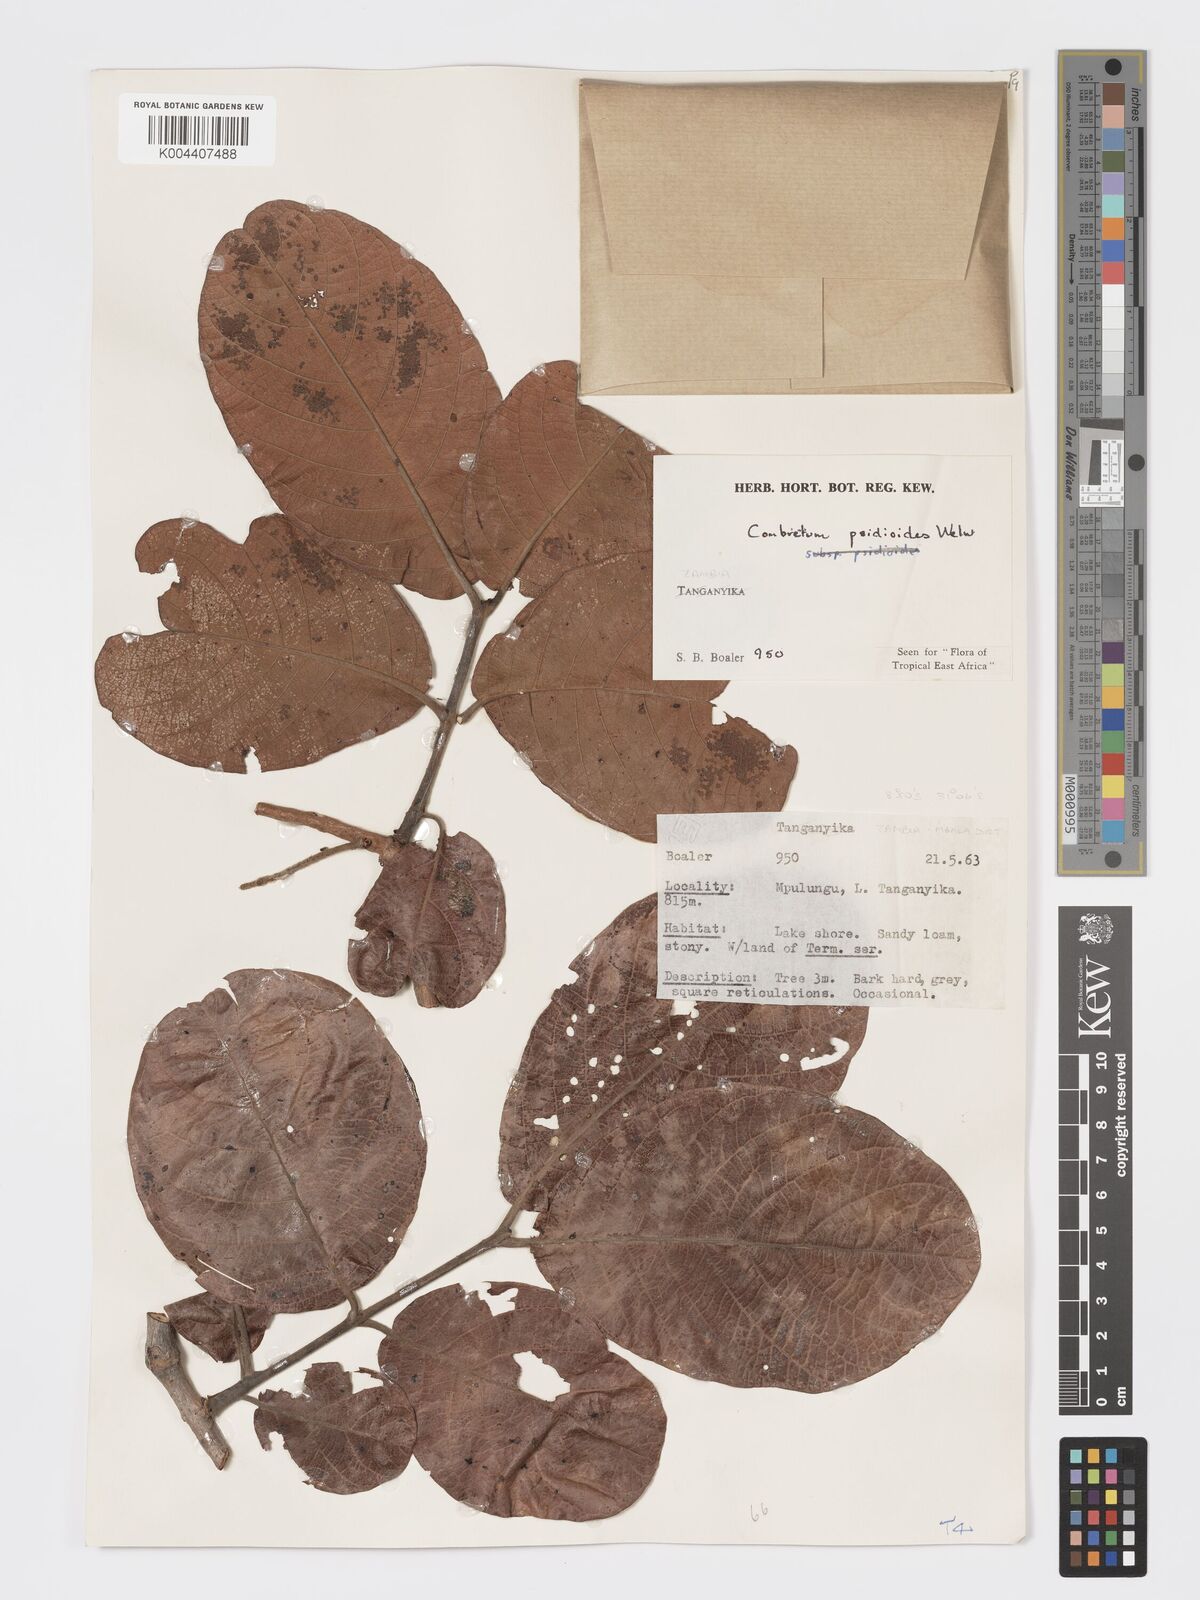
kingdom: Plantae
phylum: Tracheophyta
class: Magnoliopsida
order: Myrtales
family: Combretaceae
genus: Combretum
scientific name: Combretum psidioides
